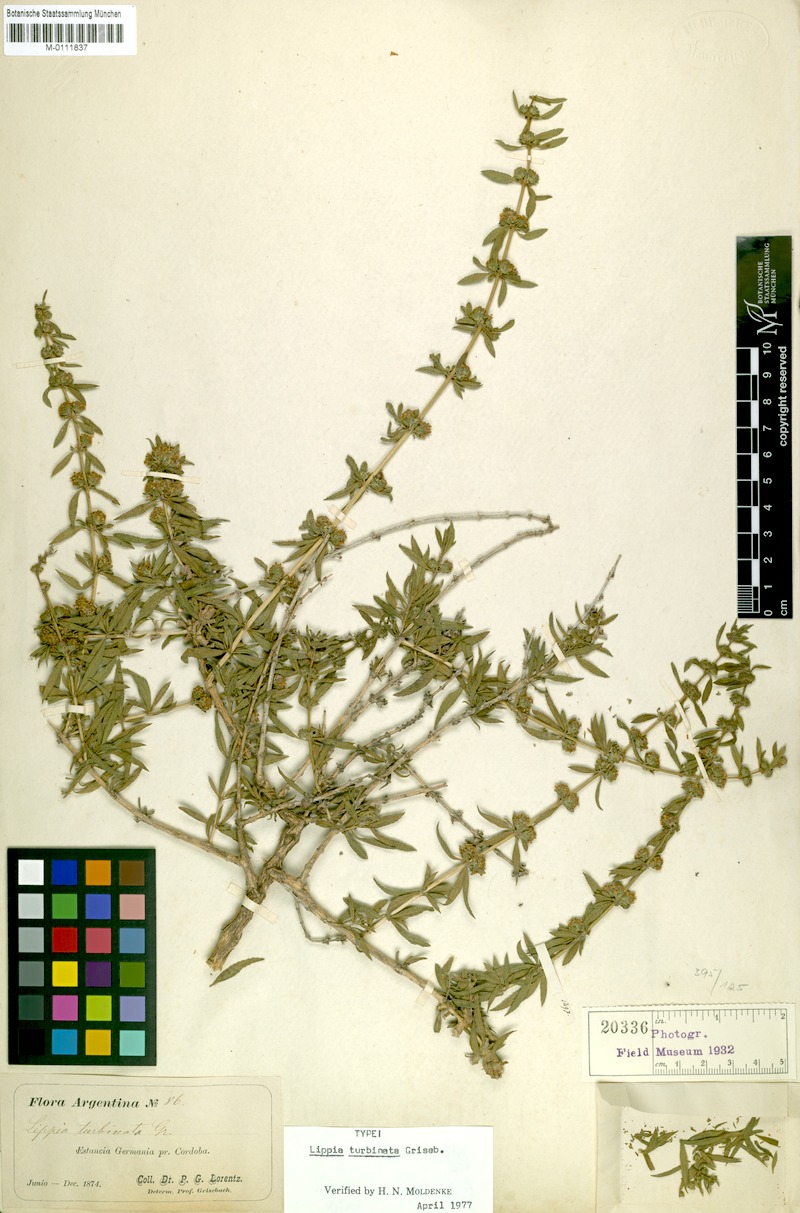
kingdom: Plantae
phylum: Tracheophyta
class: Magnoliopsida
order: Lamiales
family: Verbenaceae
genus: Lippia
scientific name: Lippia turbinata
